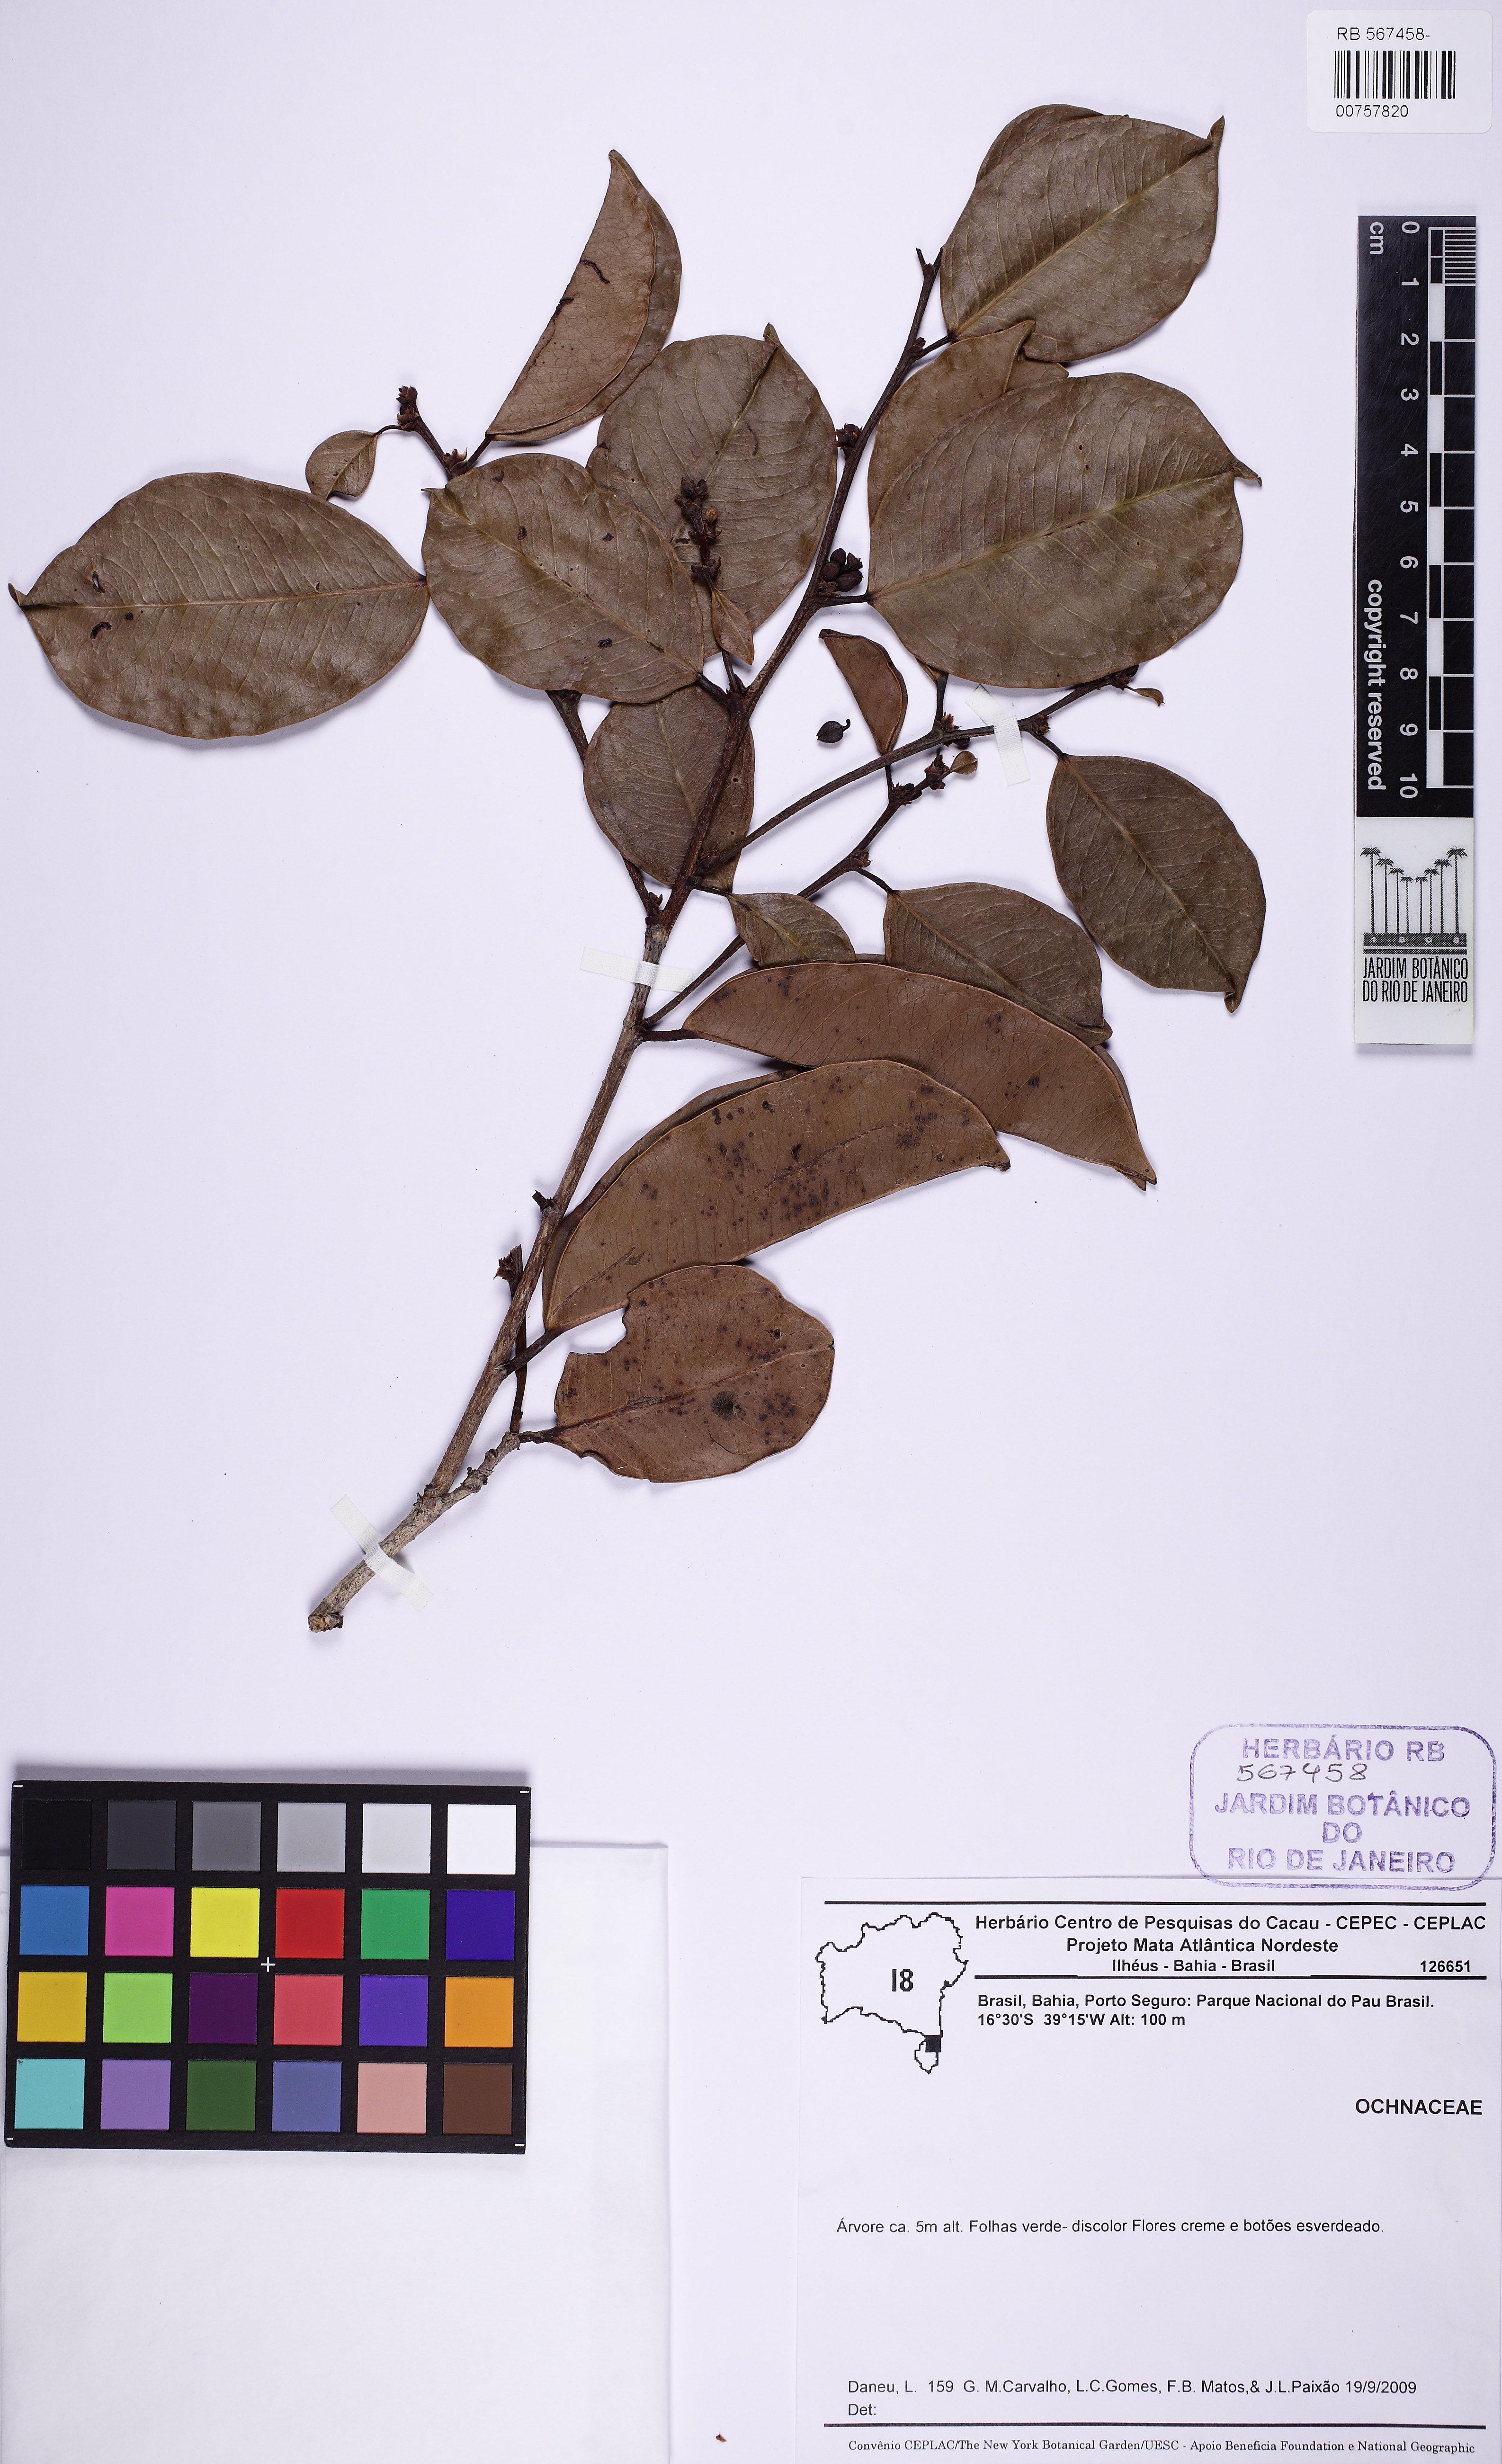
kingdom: Plantae
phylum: Tracheophyta
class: Magnoliopsida
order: Malpighiales
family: Phyllanthaceae
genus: Amanoa
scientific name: Amanoa guianensis
